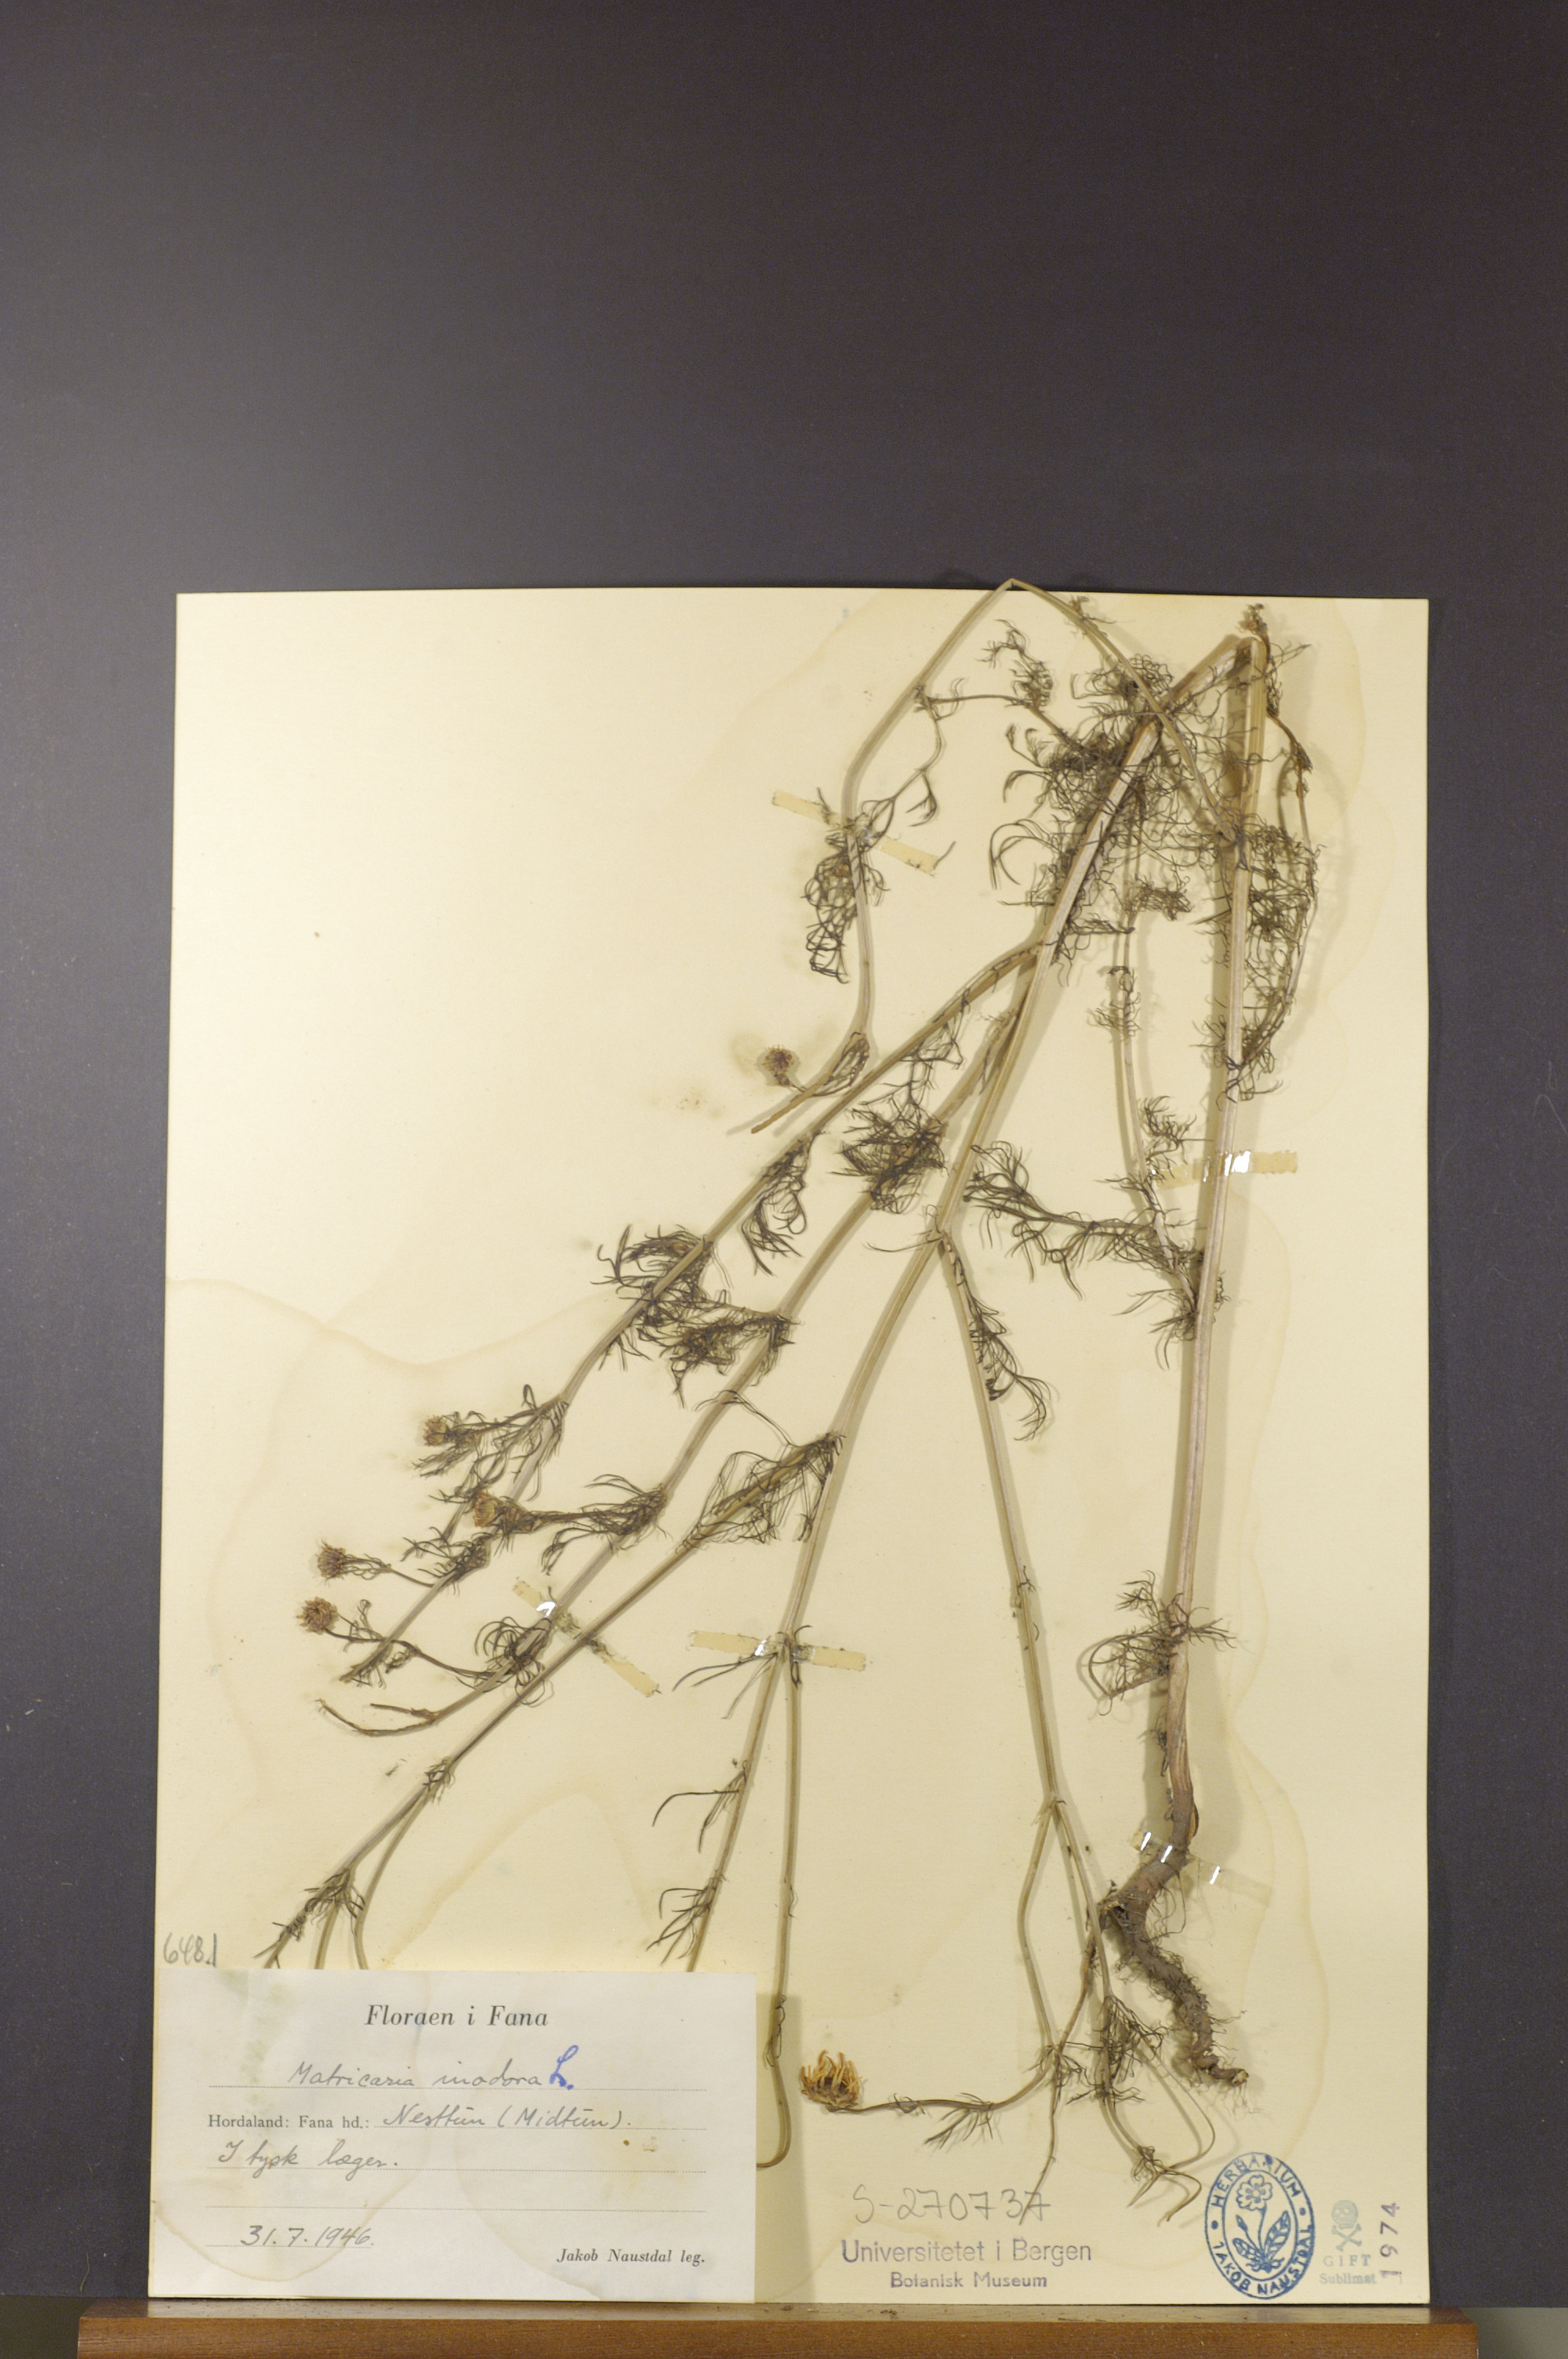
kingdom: Plantae
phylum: Tracheophyta
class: Magnoliopsida
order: Asterales
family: Asteraceae
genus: Tripleurospermum
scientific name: Tripleurospermum inodorum
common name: Scentless mayweed
